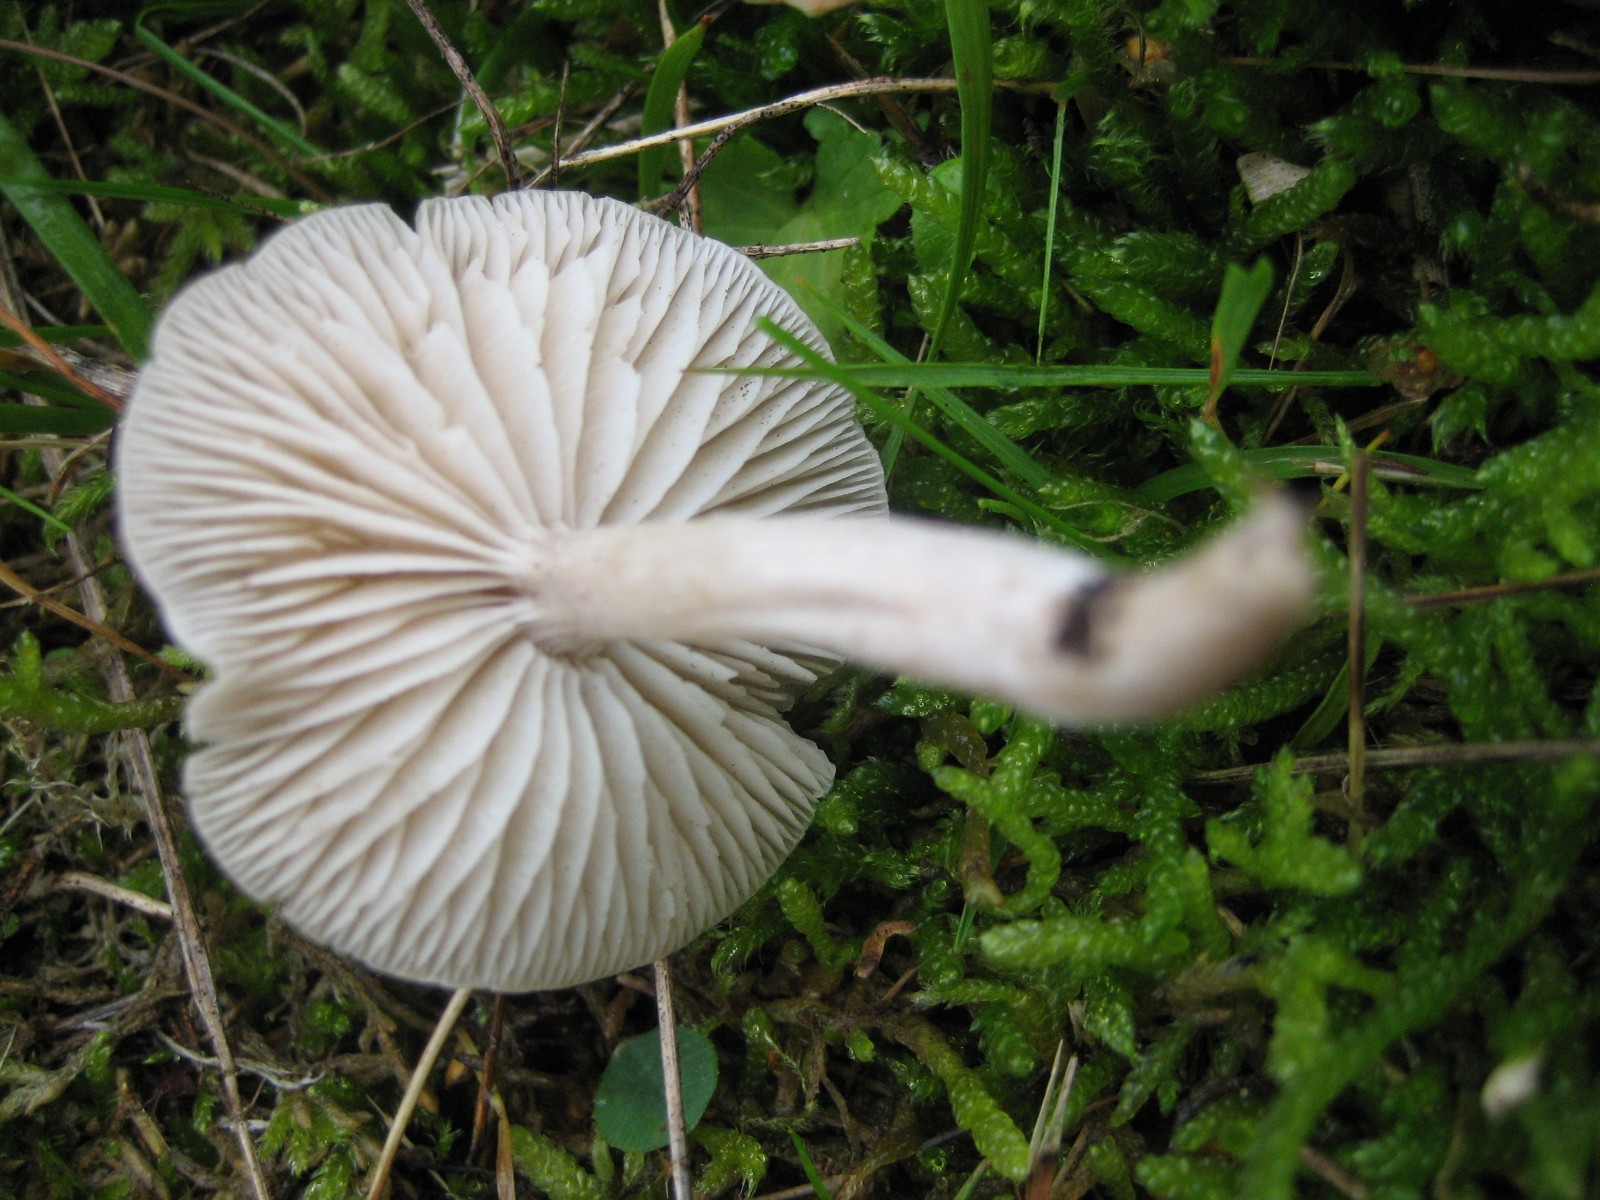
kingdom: Fungi
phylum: Basidiomycota
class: Agaricomycetes
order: Agaricales
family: Tricholomataceae
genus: Dermoloma
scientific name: Dermoloma
